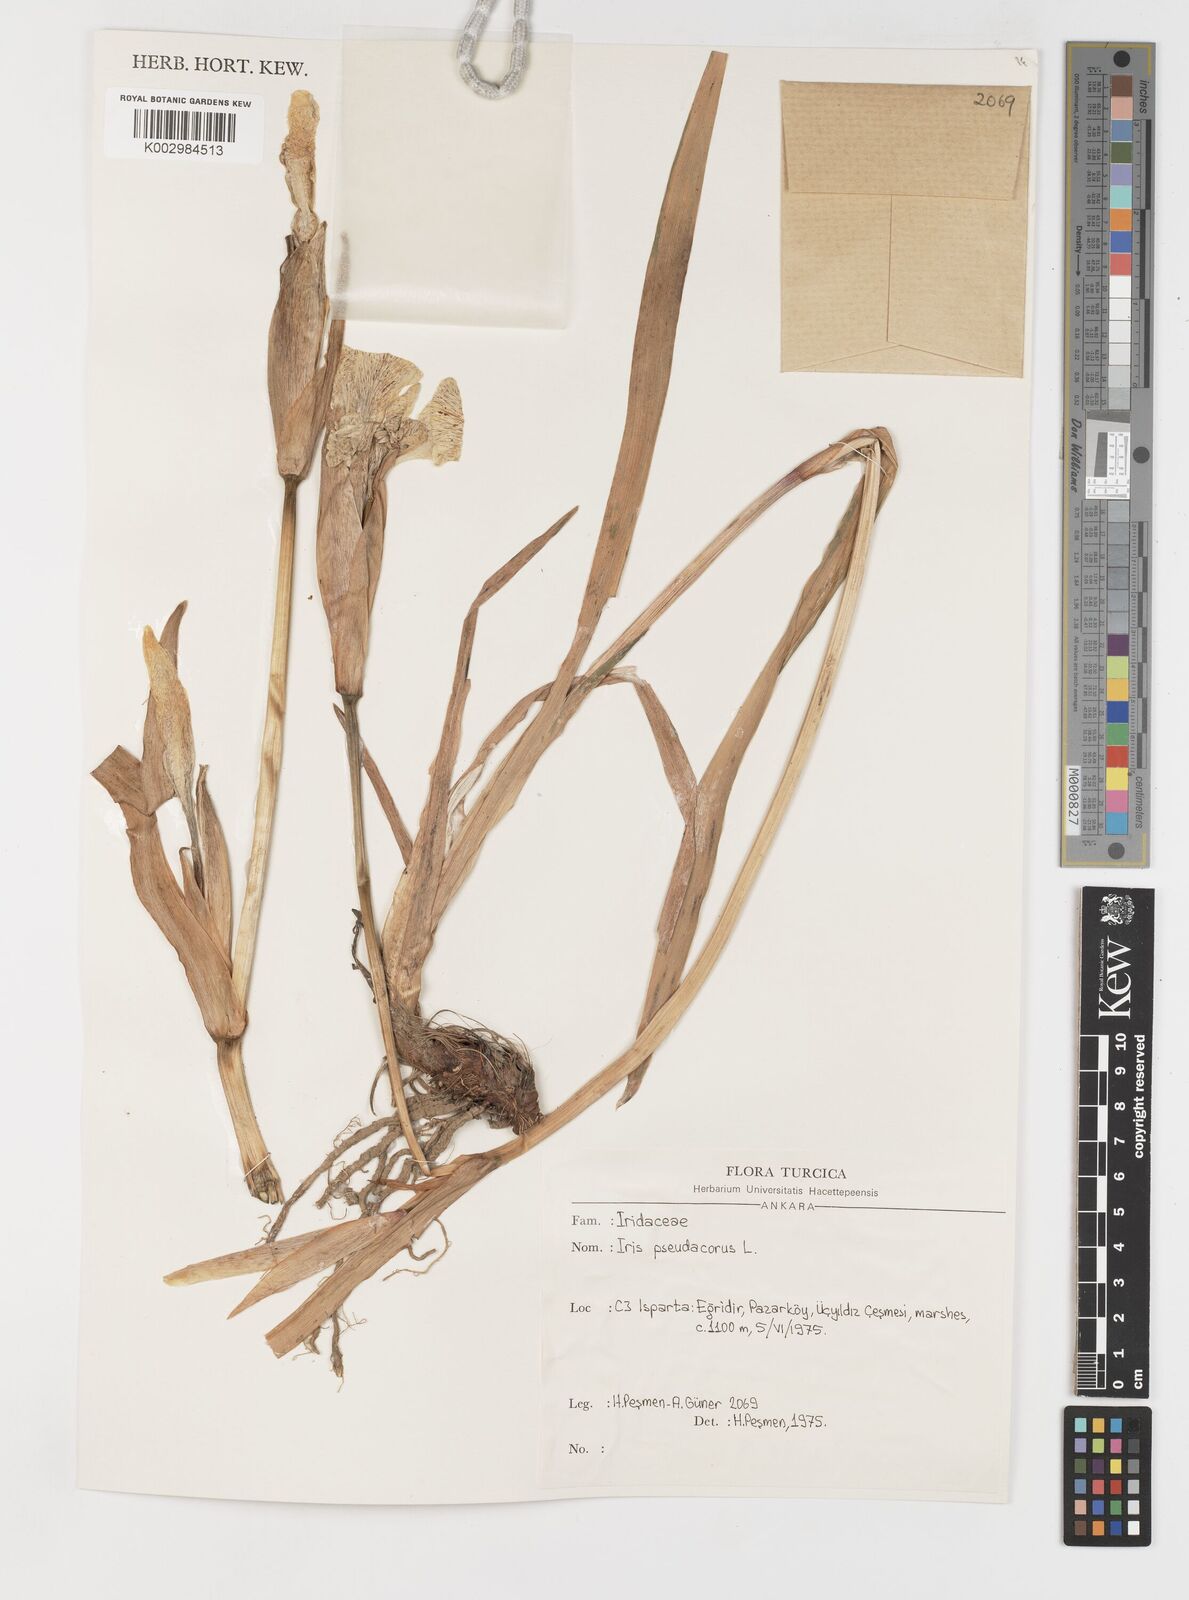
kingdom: Plantae
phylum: Tracheophyta
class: Liliopsida
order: Asparagales
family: Iridaceae
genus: Iris
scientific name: Iris pseudacorus
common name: Yellow flag
